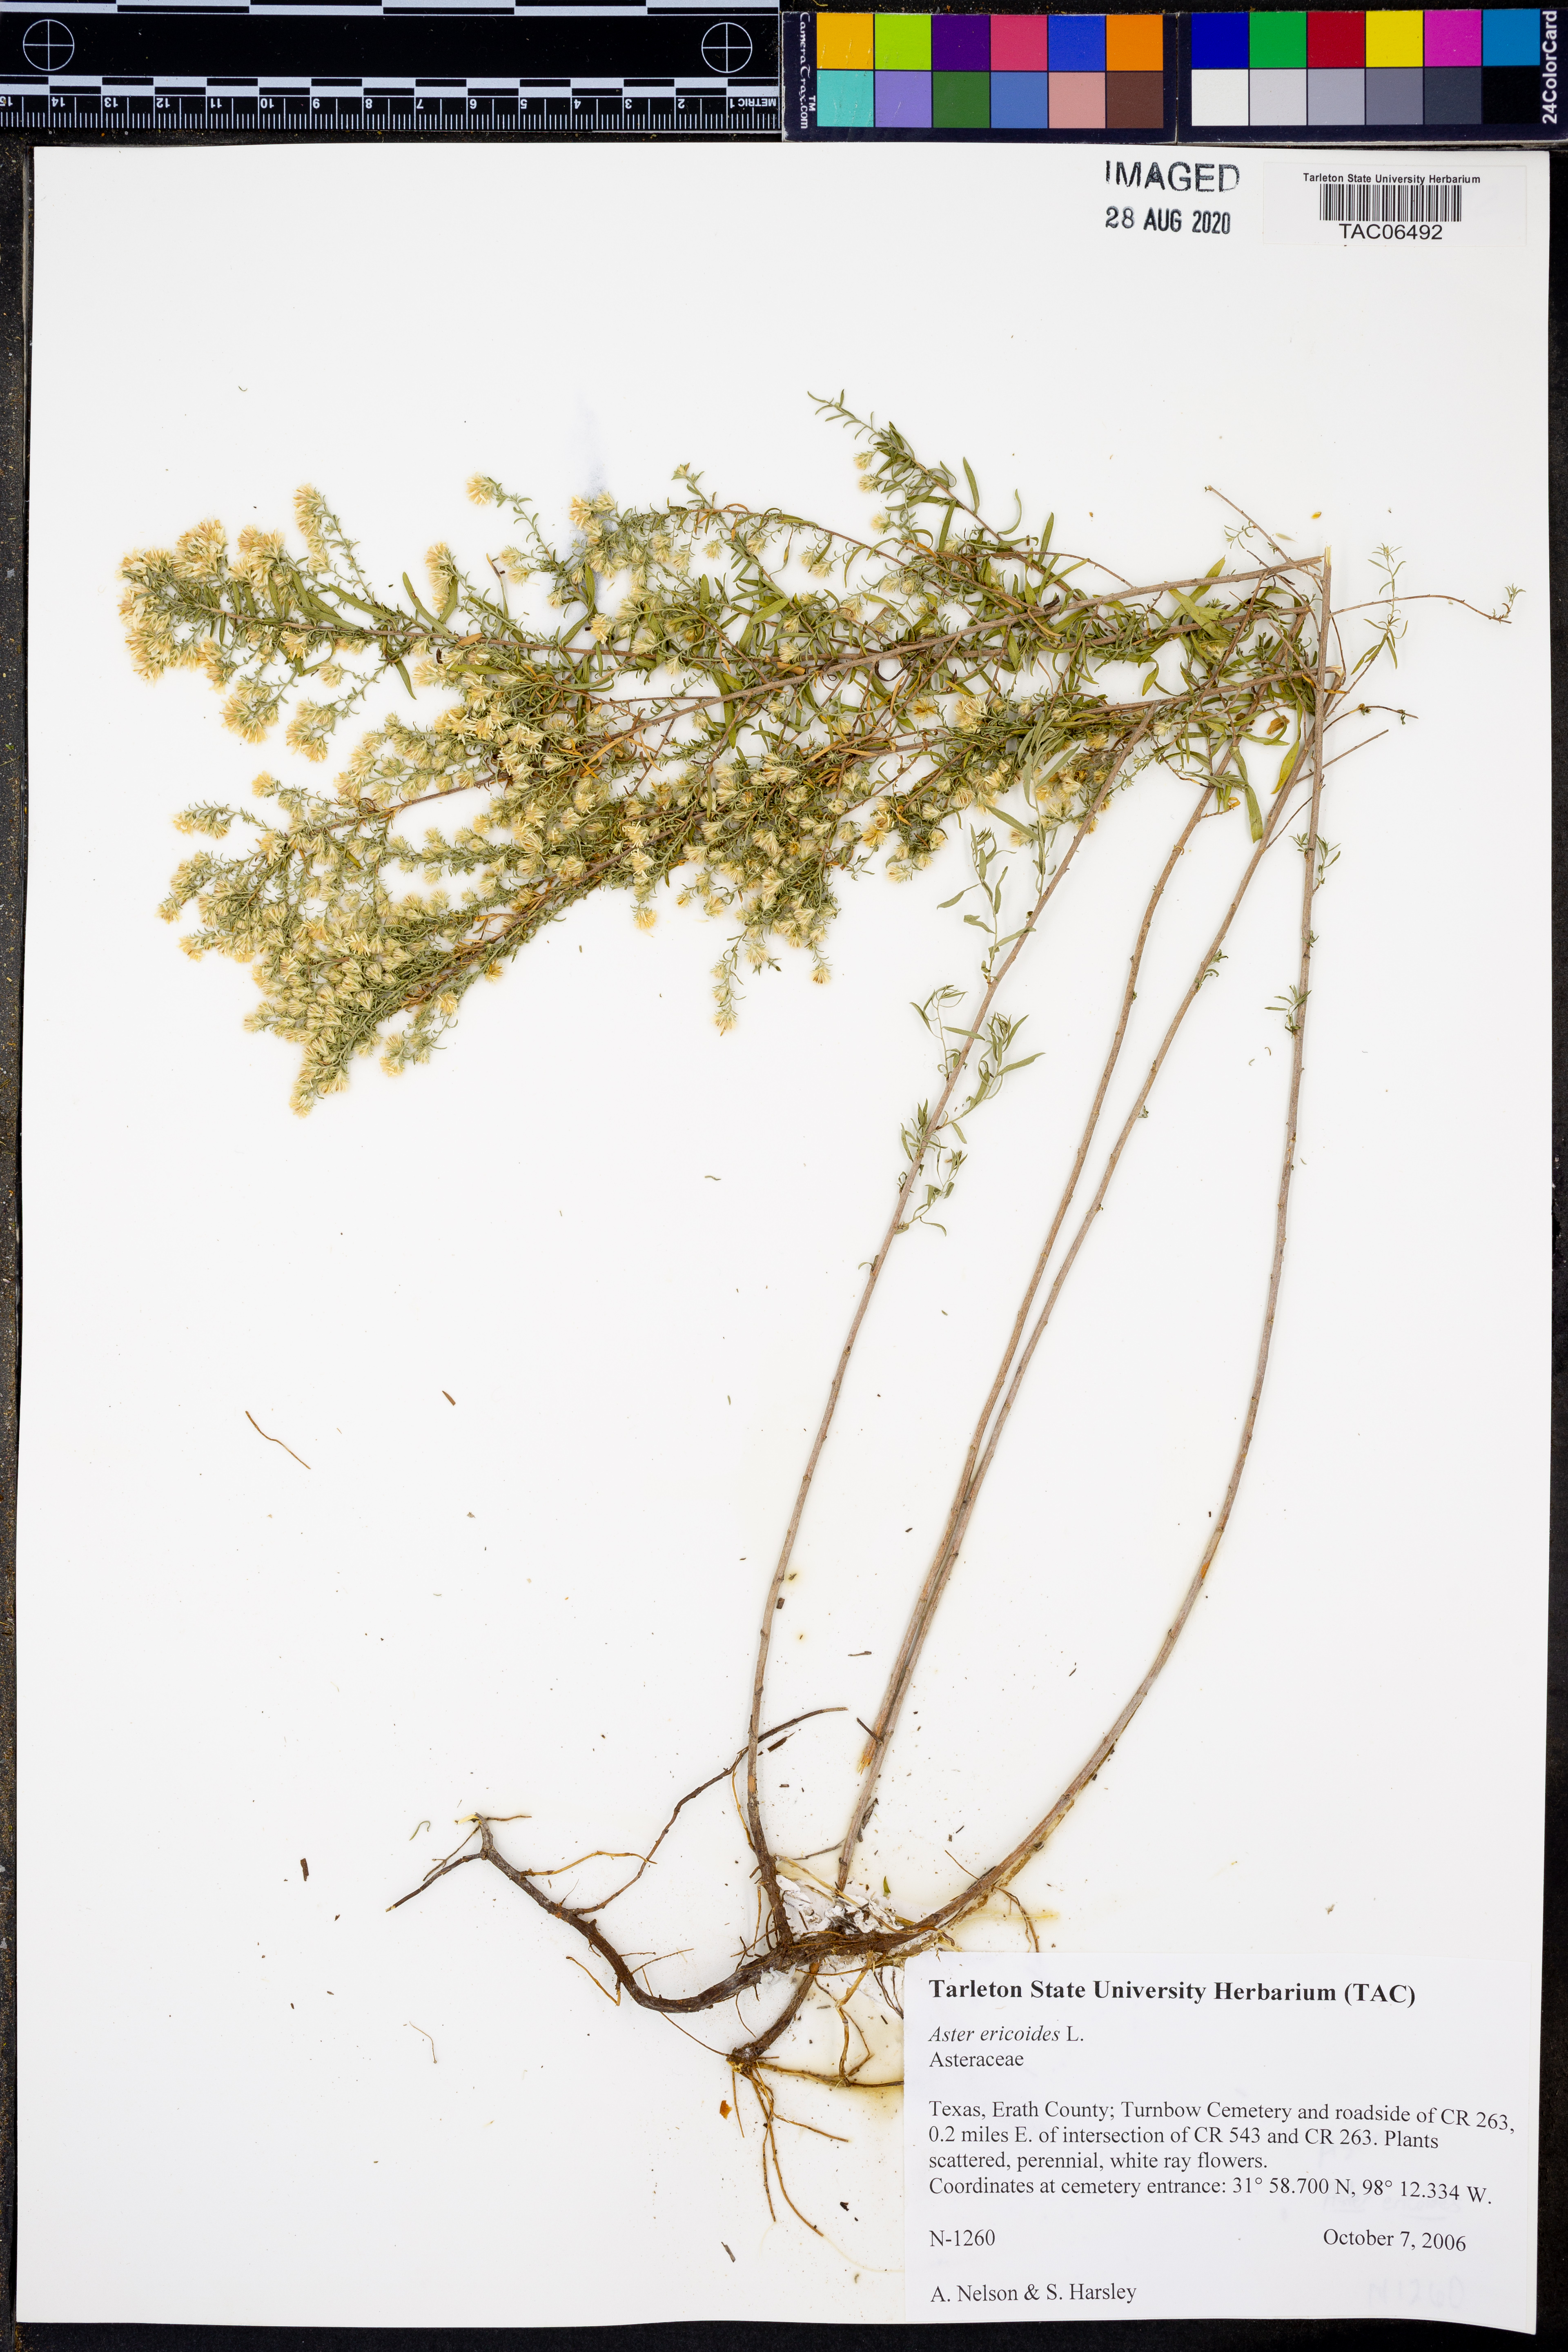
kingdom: Plantae
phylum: Tracheophyta
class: Magnoliopsida
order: Asterales
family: Asteraceae
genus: Symphyotrichum
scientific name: Symphyotrichum ericoides
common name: Heath aster
